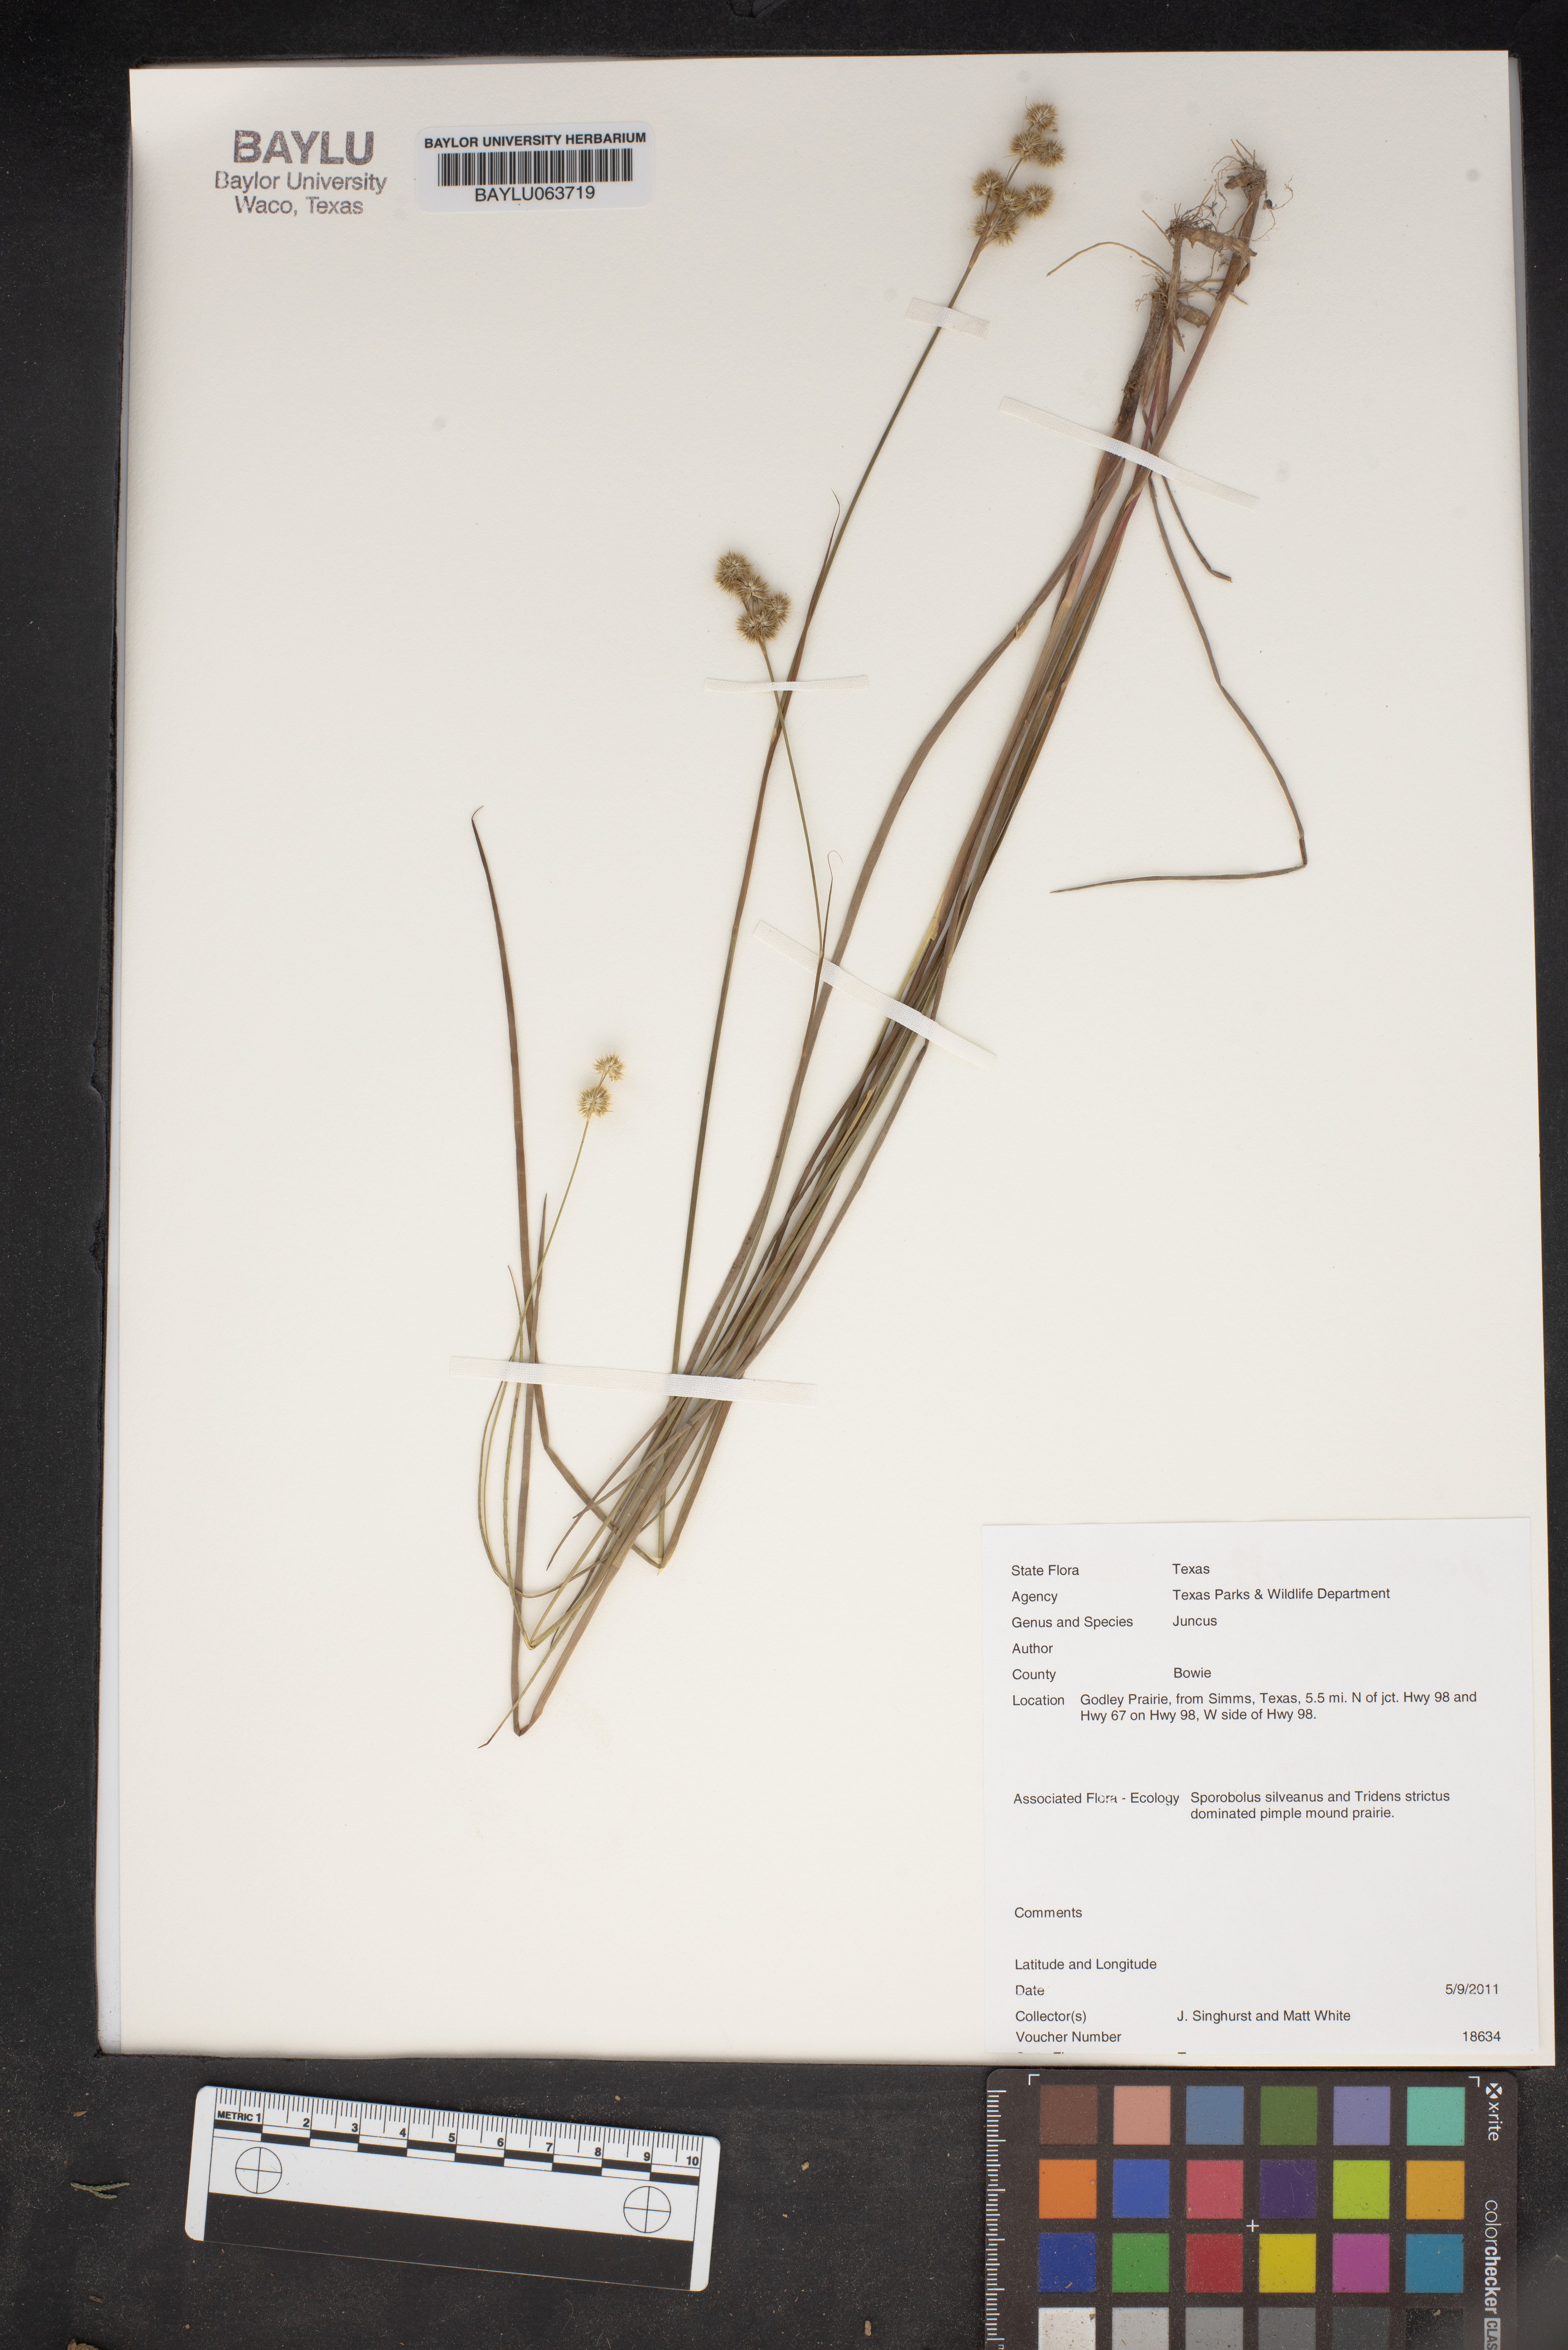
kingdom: Plantae
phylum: Tracheophyta
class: Liliopsida
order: Poales
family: Juncaceae
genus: Juncus
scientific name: Juncus
